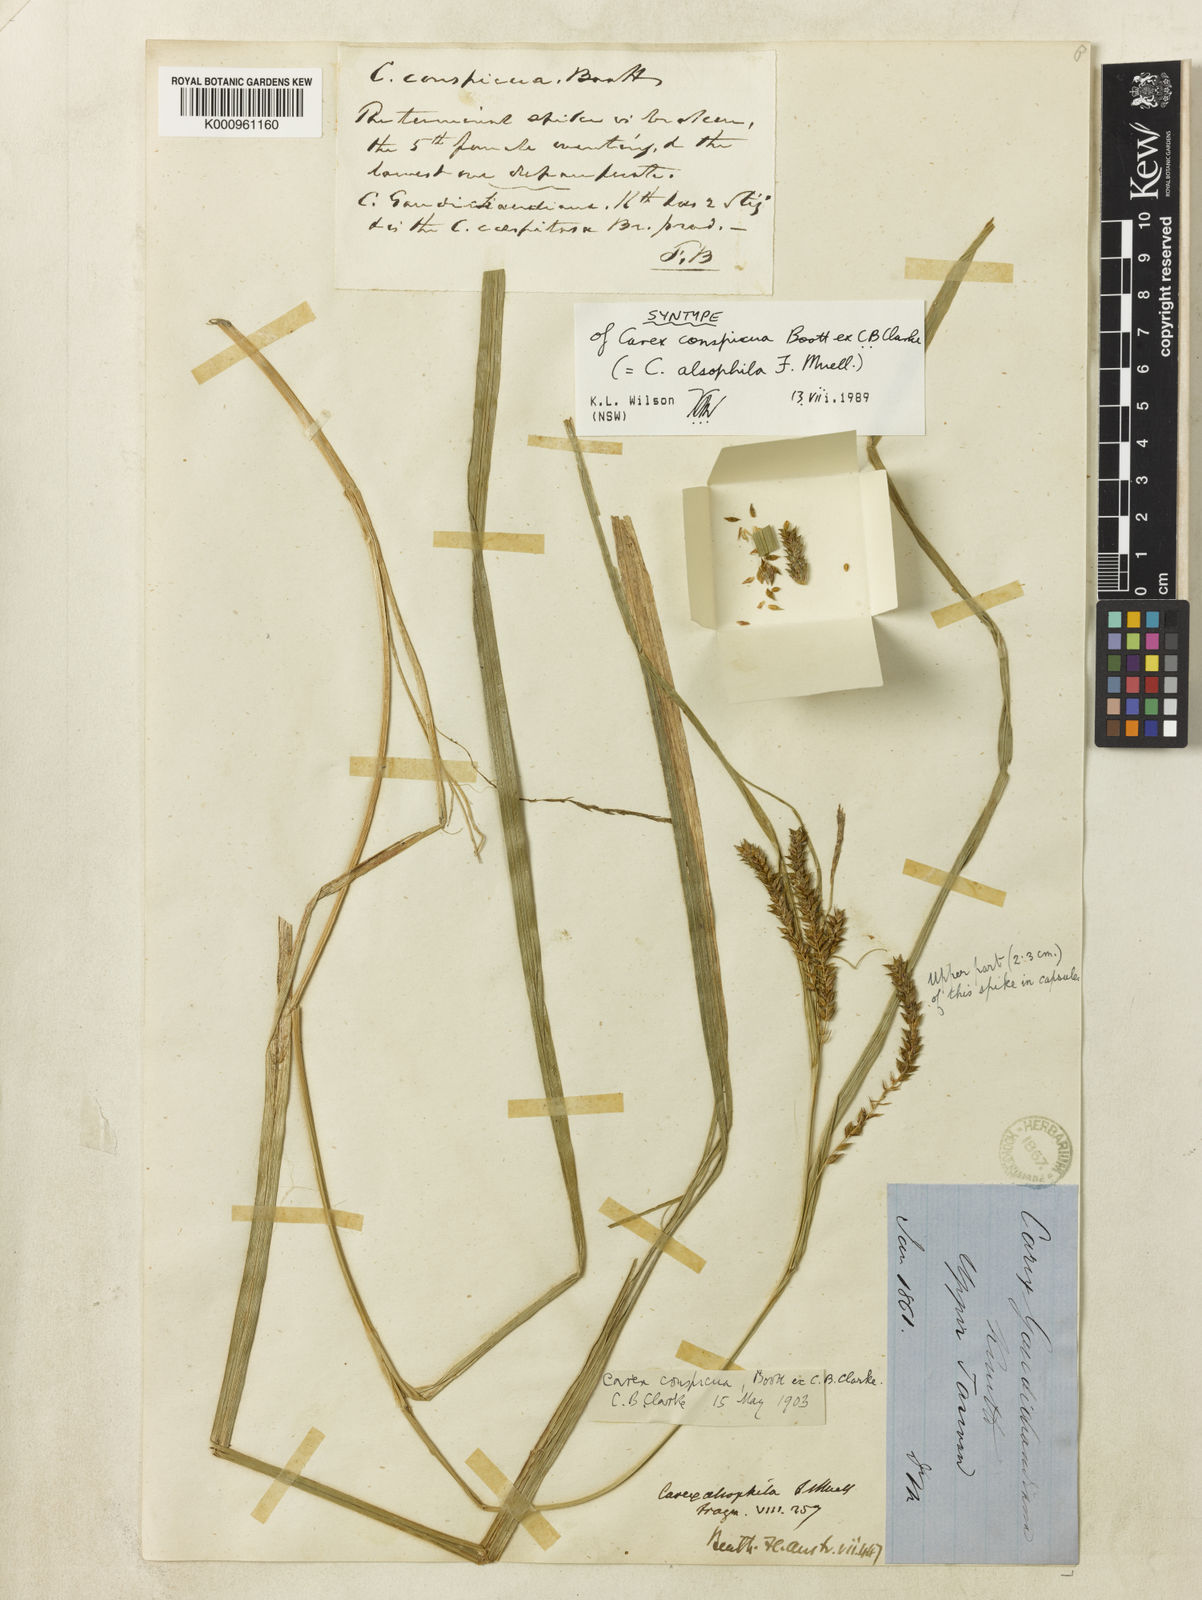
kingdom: Plantae
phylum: Tracheophyta
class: Liliopsida
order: Poales
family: Cyperaceae
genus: Carex
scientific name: Carex alsophila
